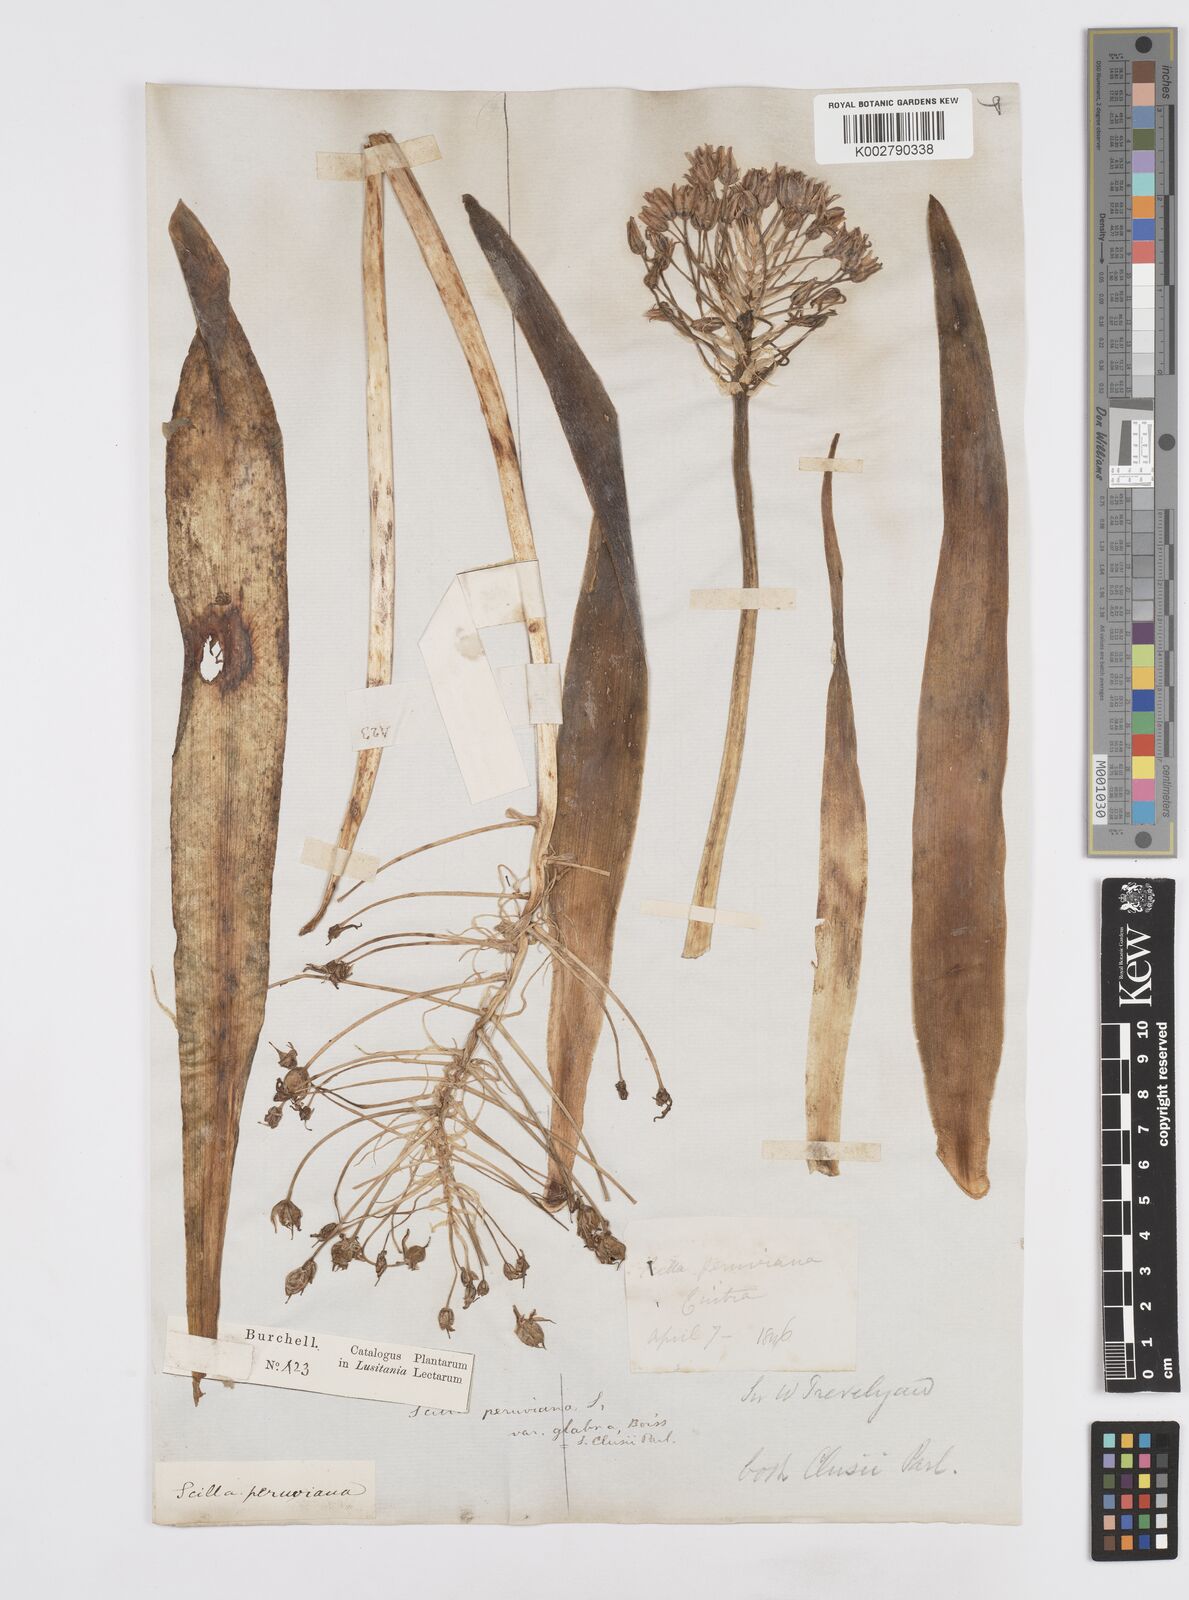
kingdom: Plantae
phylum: Tracheophyta
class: Liliopsida
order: Asparagales
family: Asparagaceae
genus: Scilla
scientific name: Scilla
